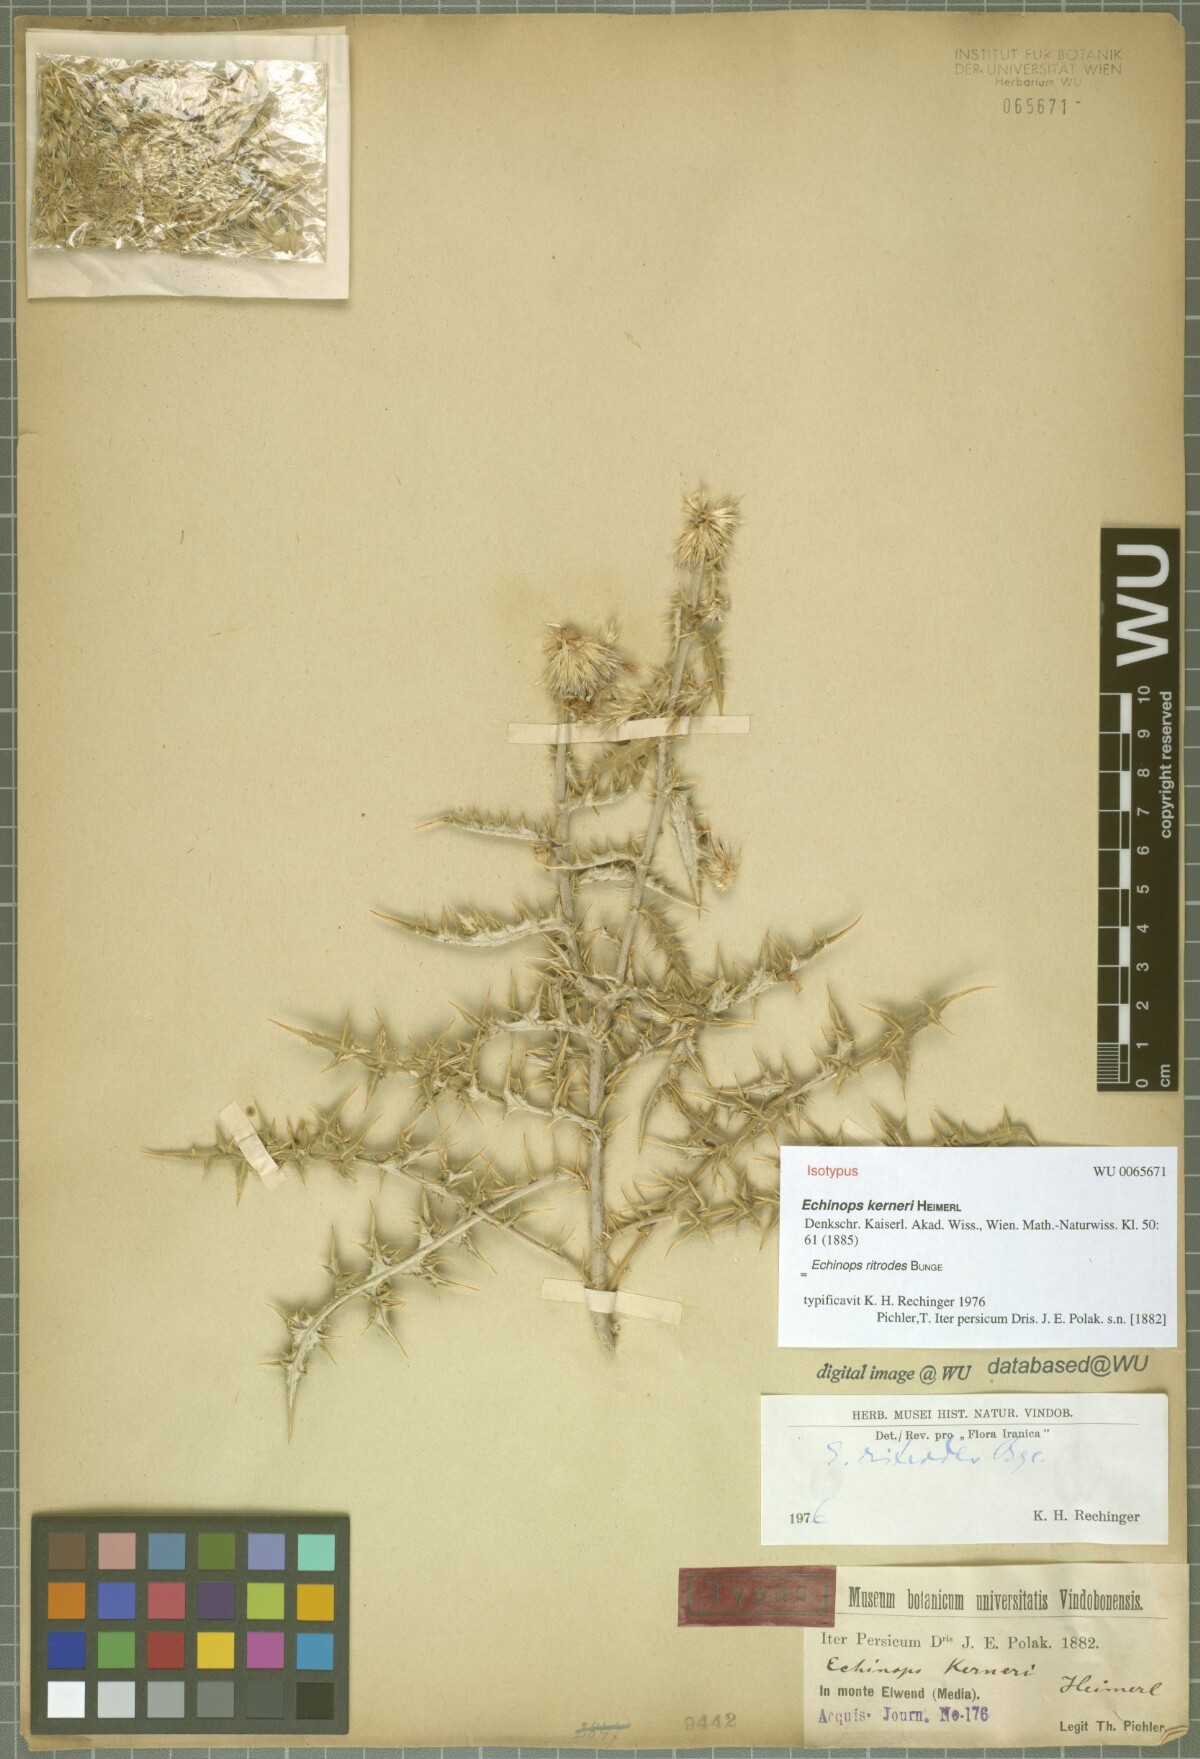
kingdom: Plantae
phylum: Tracheophyta
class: Magnoliopsida
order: Asterales
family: Asteraceae
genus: Echinops
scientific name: Echinops kerneri
